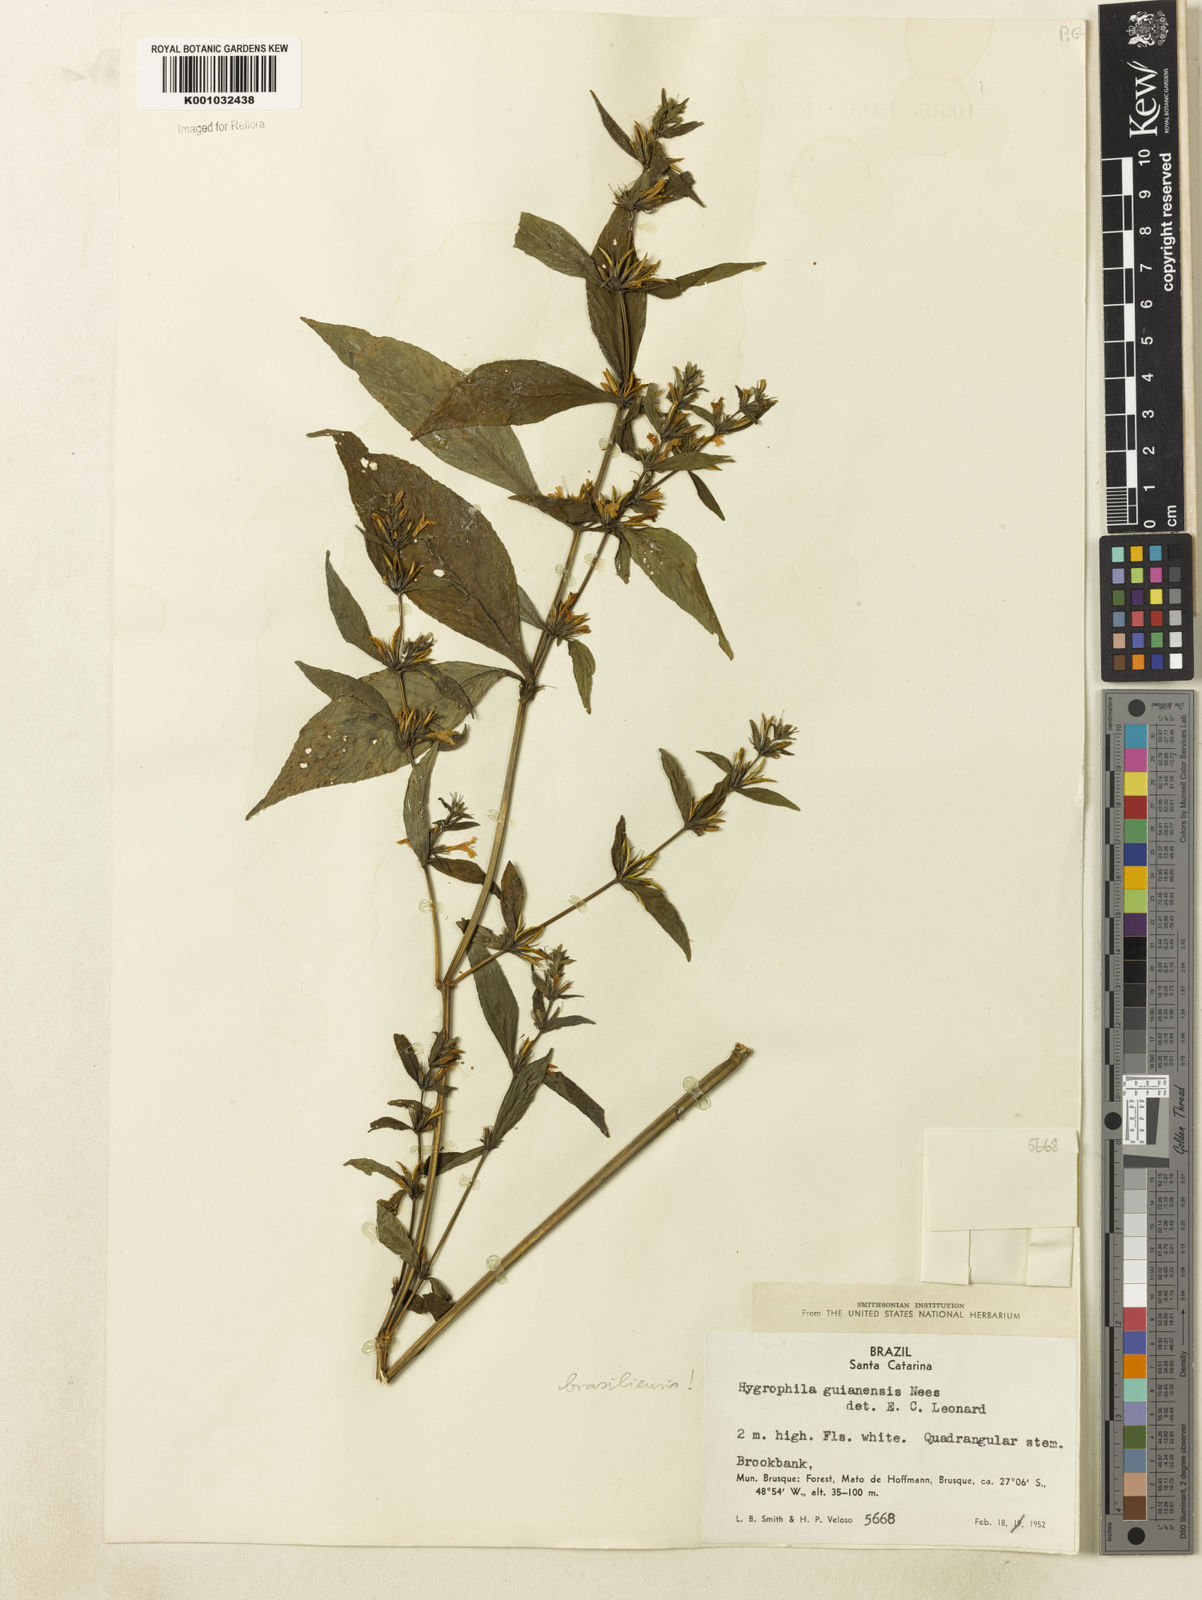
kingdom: Plantae
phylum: Tracheophyta
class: Magnoliopsida
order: Lamiales
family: Acanthaceae
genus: Hygrophila
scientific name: Hygrophila costata
